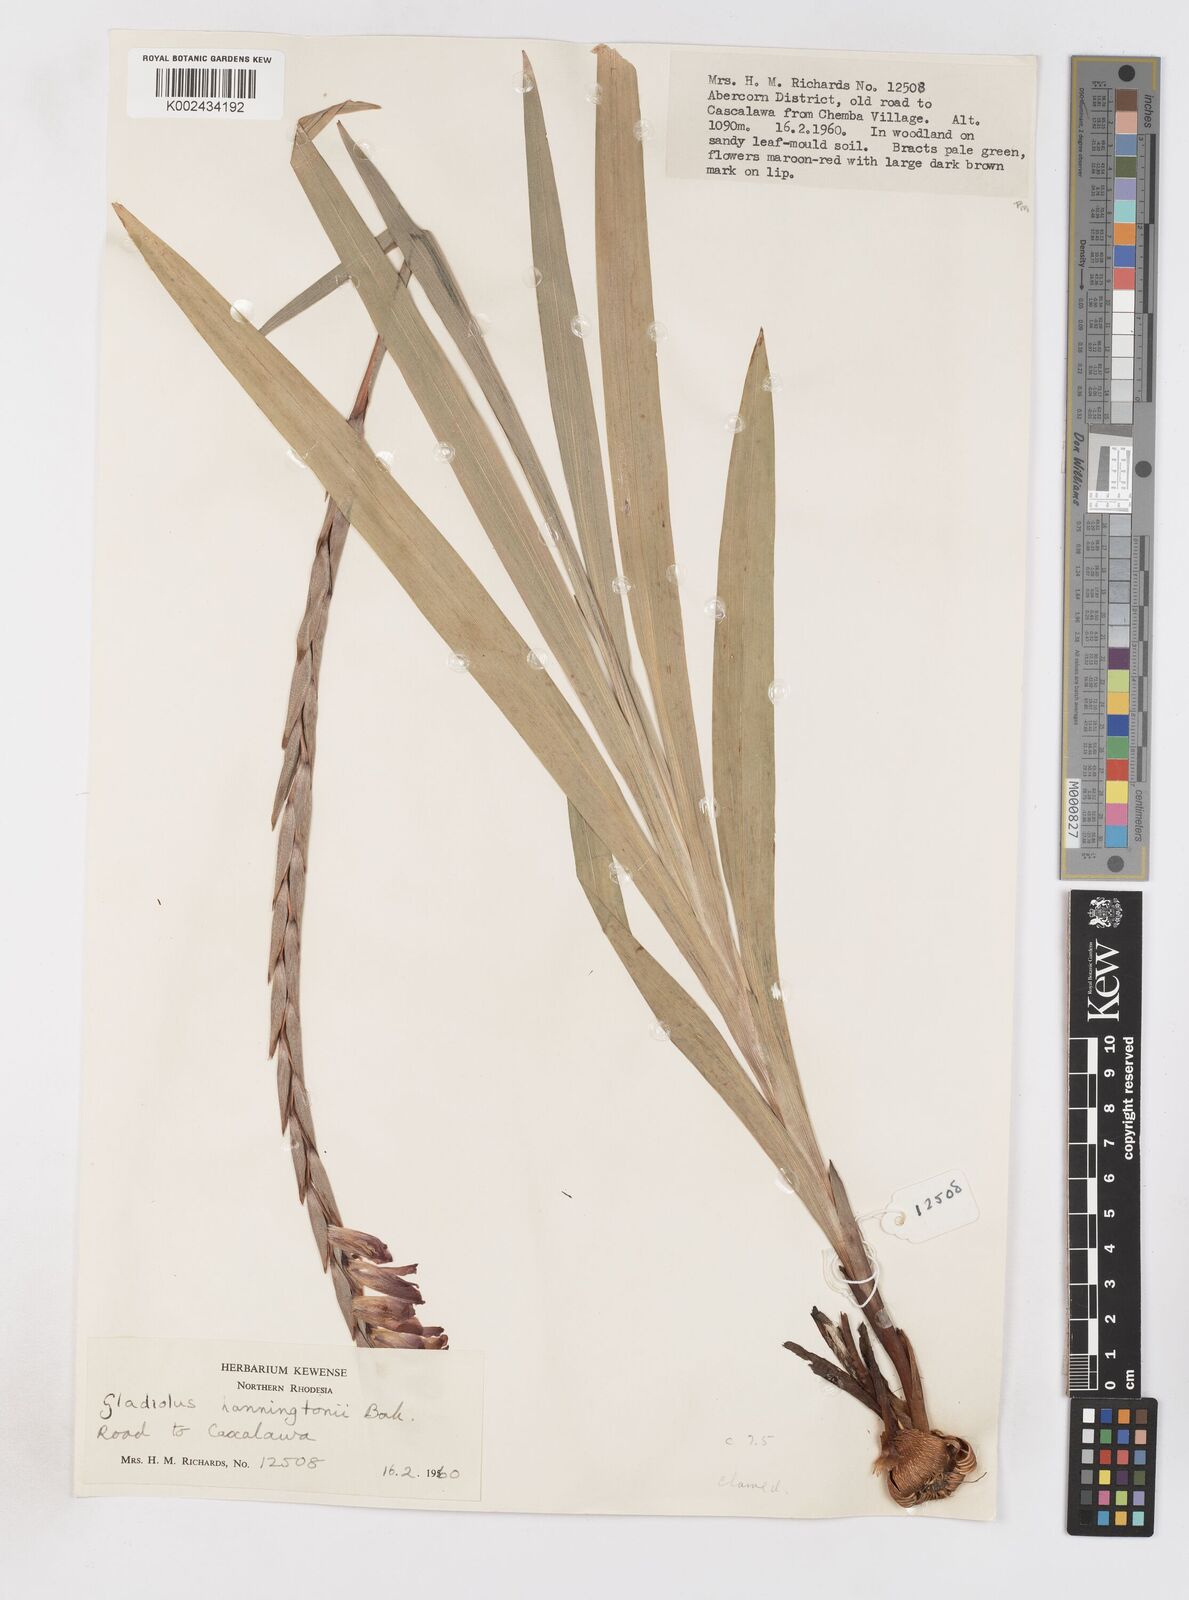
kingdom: Plantae
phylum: Tracheophyta
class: Liliopsida
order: Asparagales
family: Iridaceae
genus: Gladiolus
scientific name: Gladiolus gregarius
